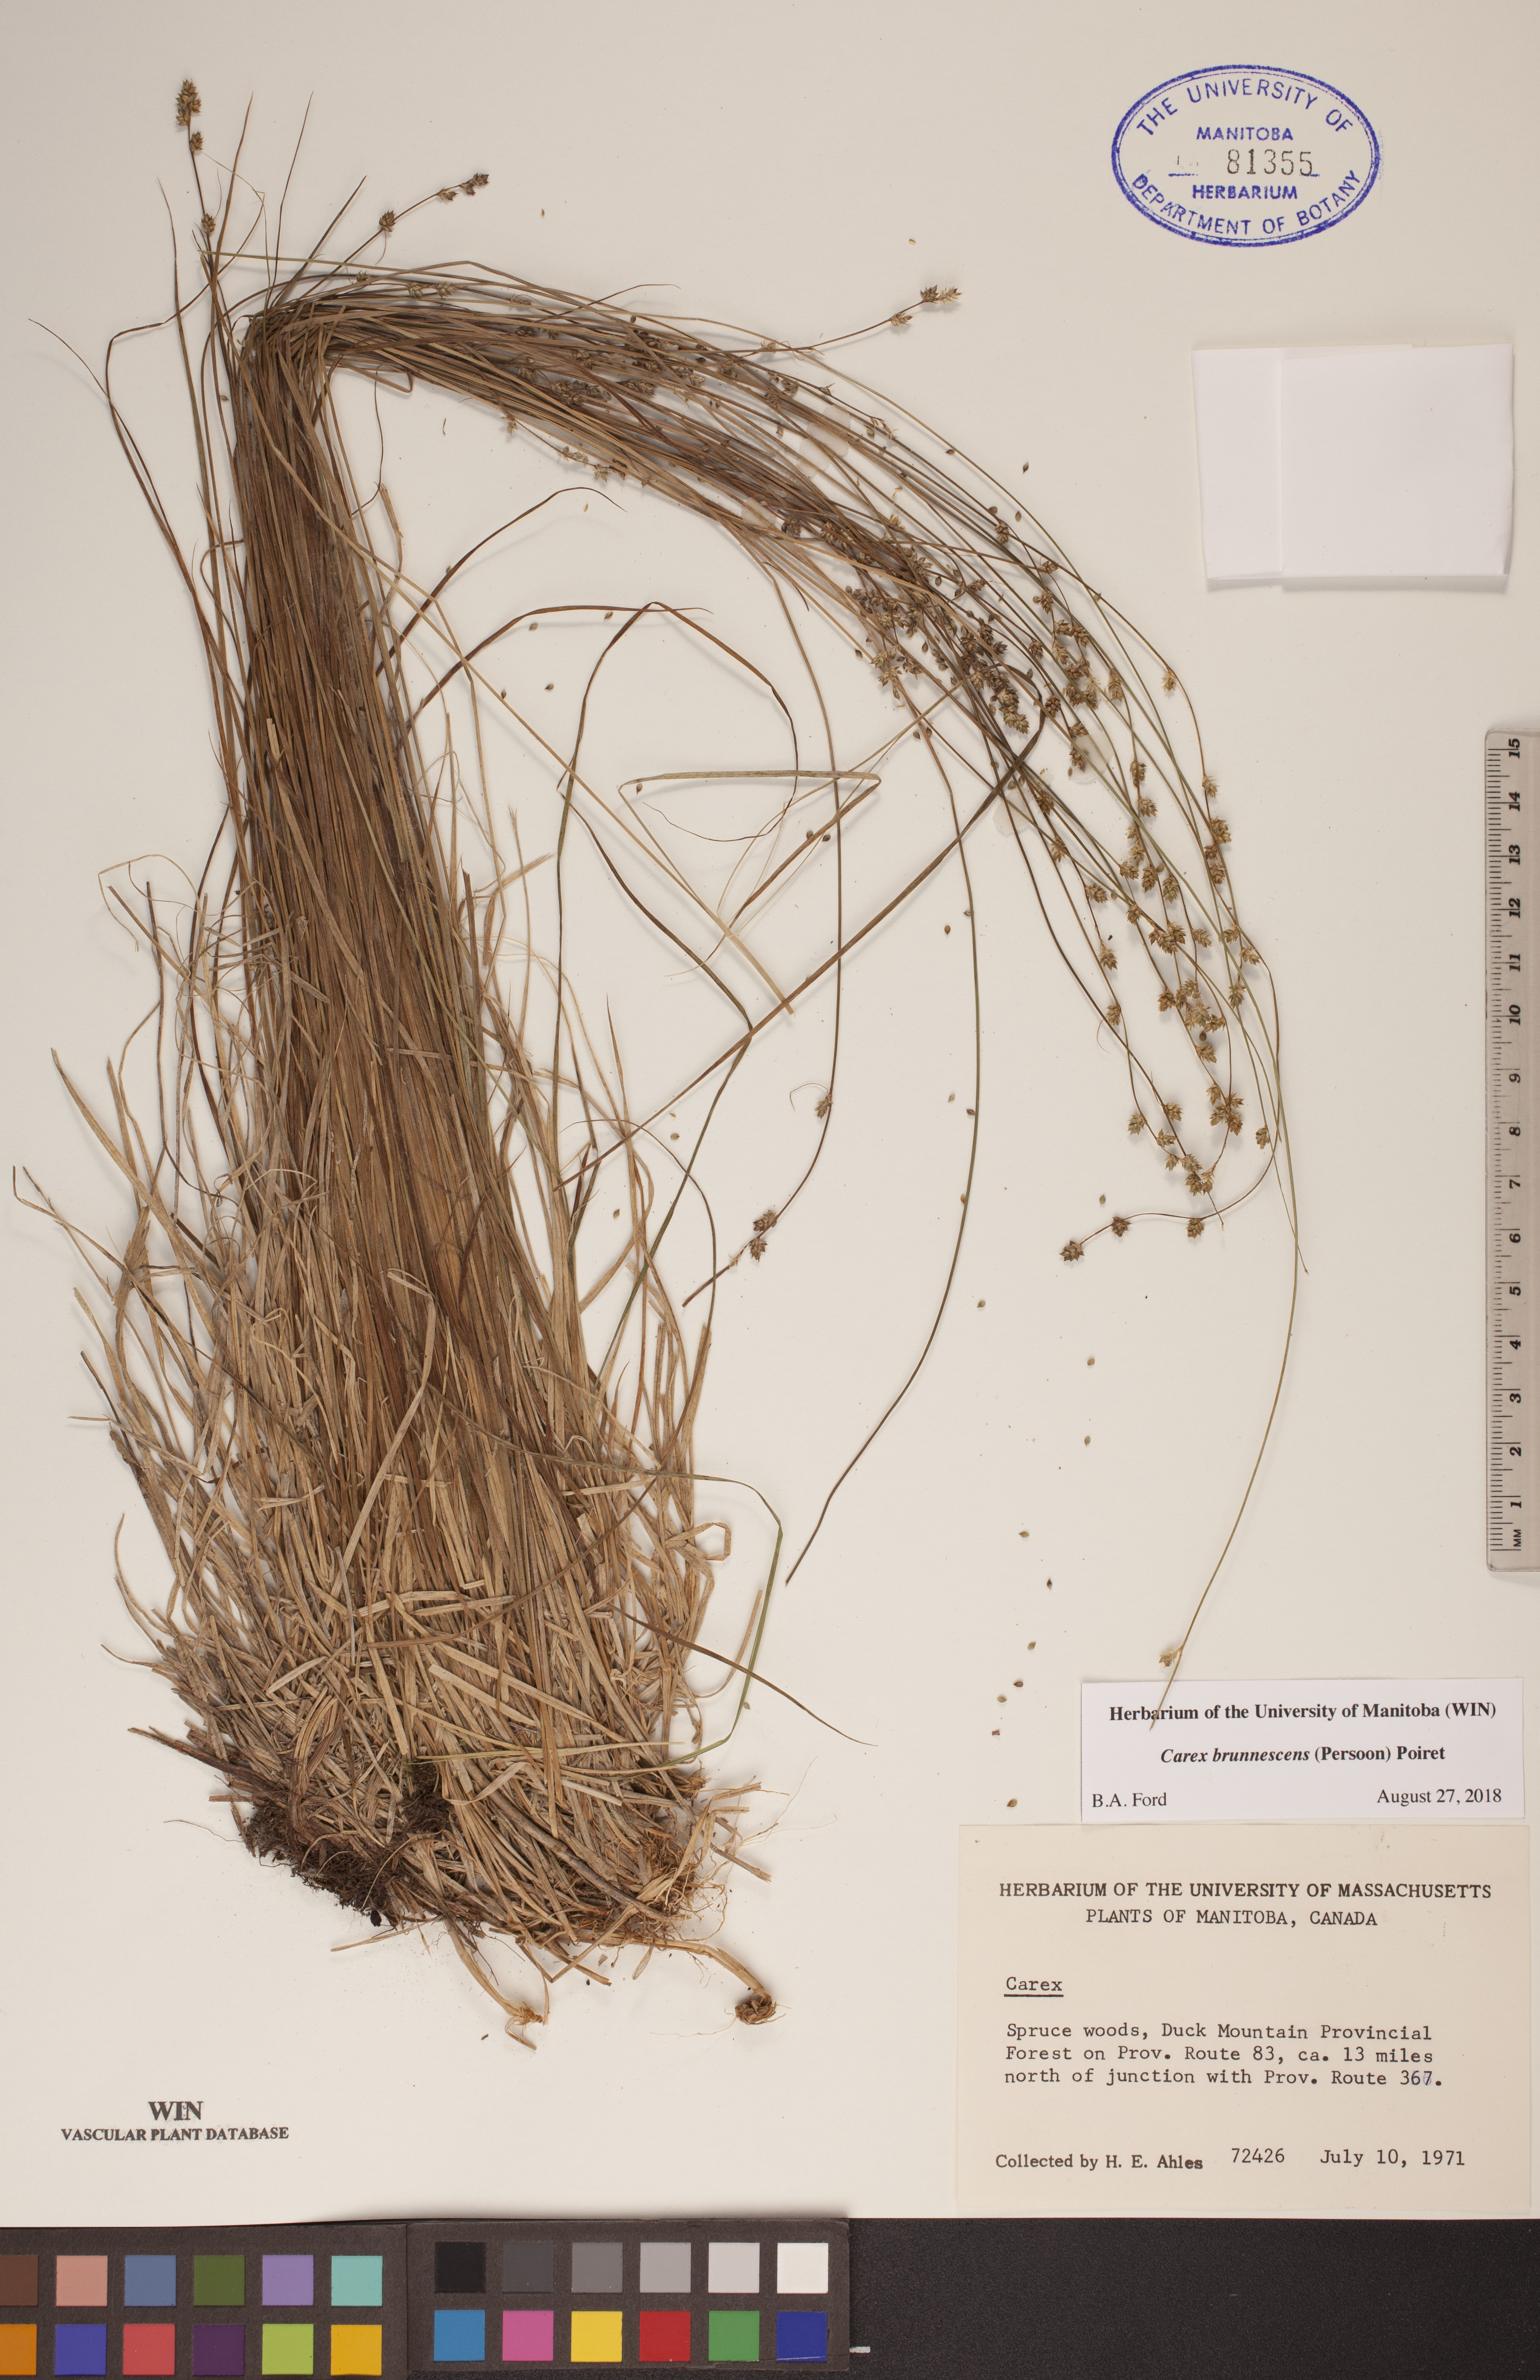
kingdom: Plantae
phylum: Tracheophyta
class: Liliopsida
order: Poales
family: Cyperaceae
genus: Carex
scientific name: Carex brunnescens
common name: Brown sedge
